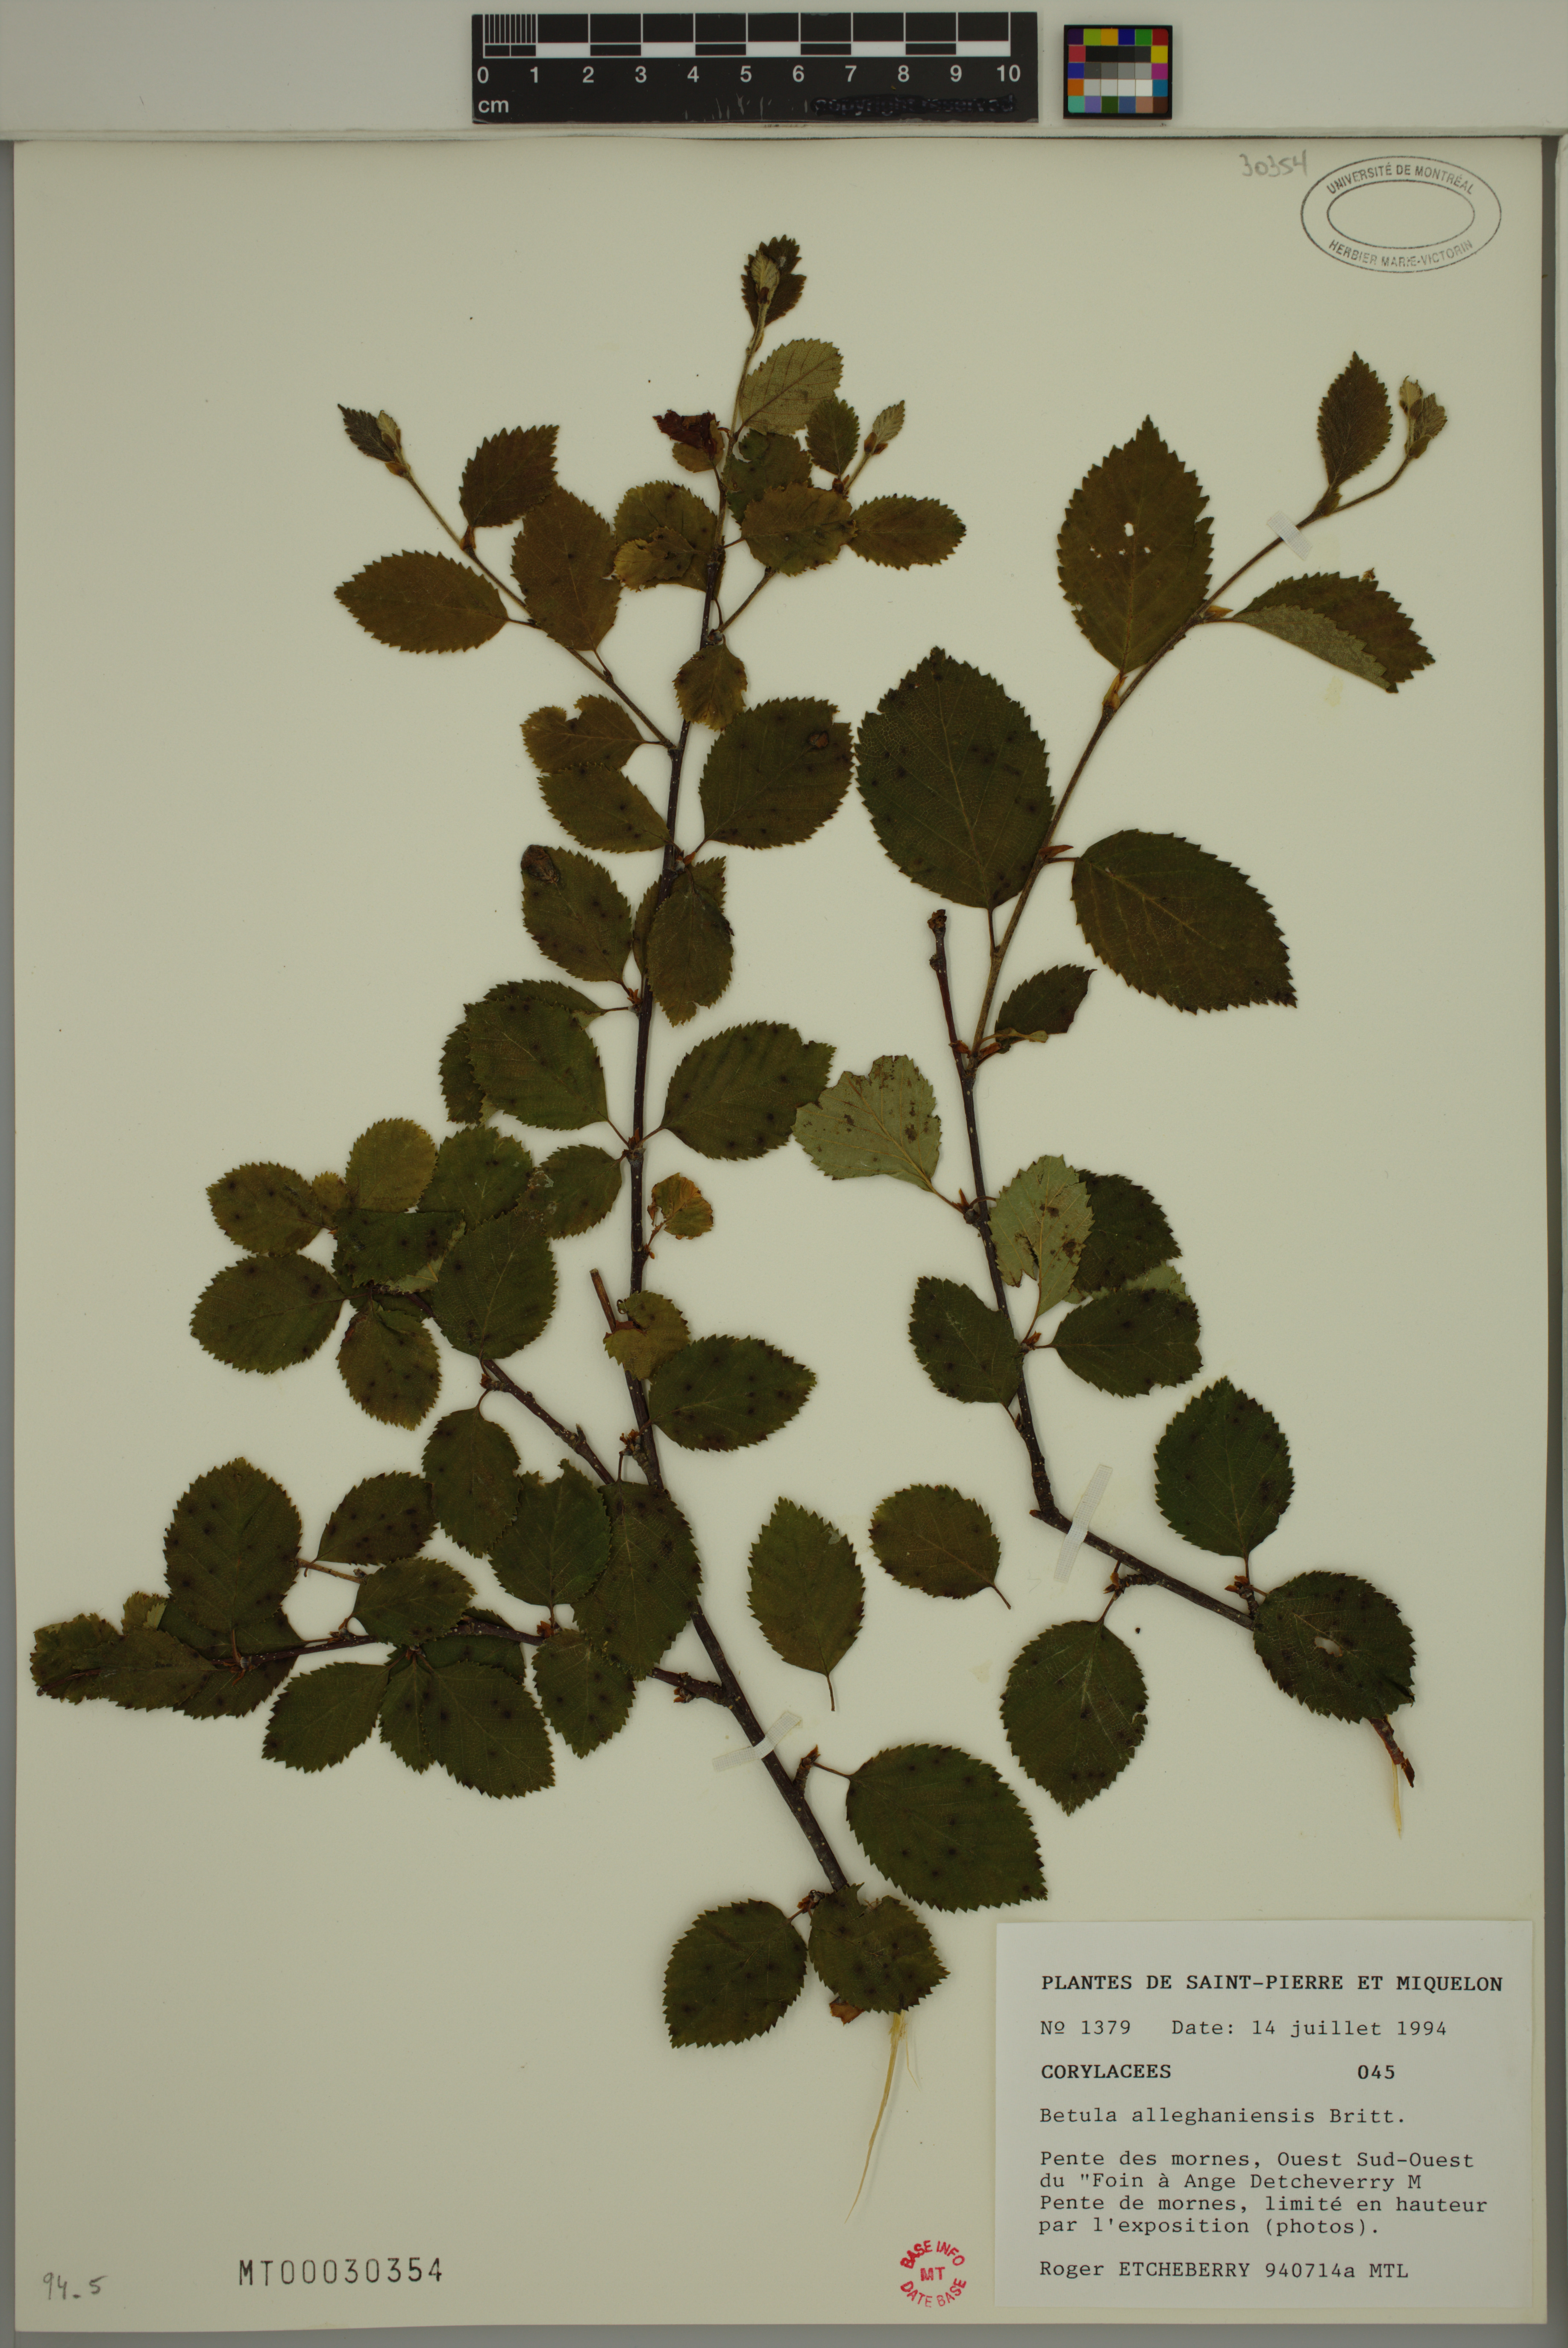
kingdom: Plantae
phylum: Tracheophyta
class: Magnoliopsida
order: Fagales
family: Betulaceae
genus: Betula
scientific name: Betula alleghaniensis
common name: Yellow birch
